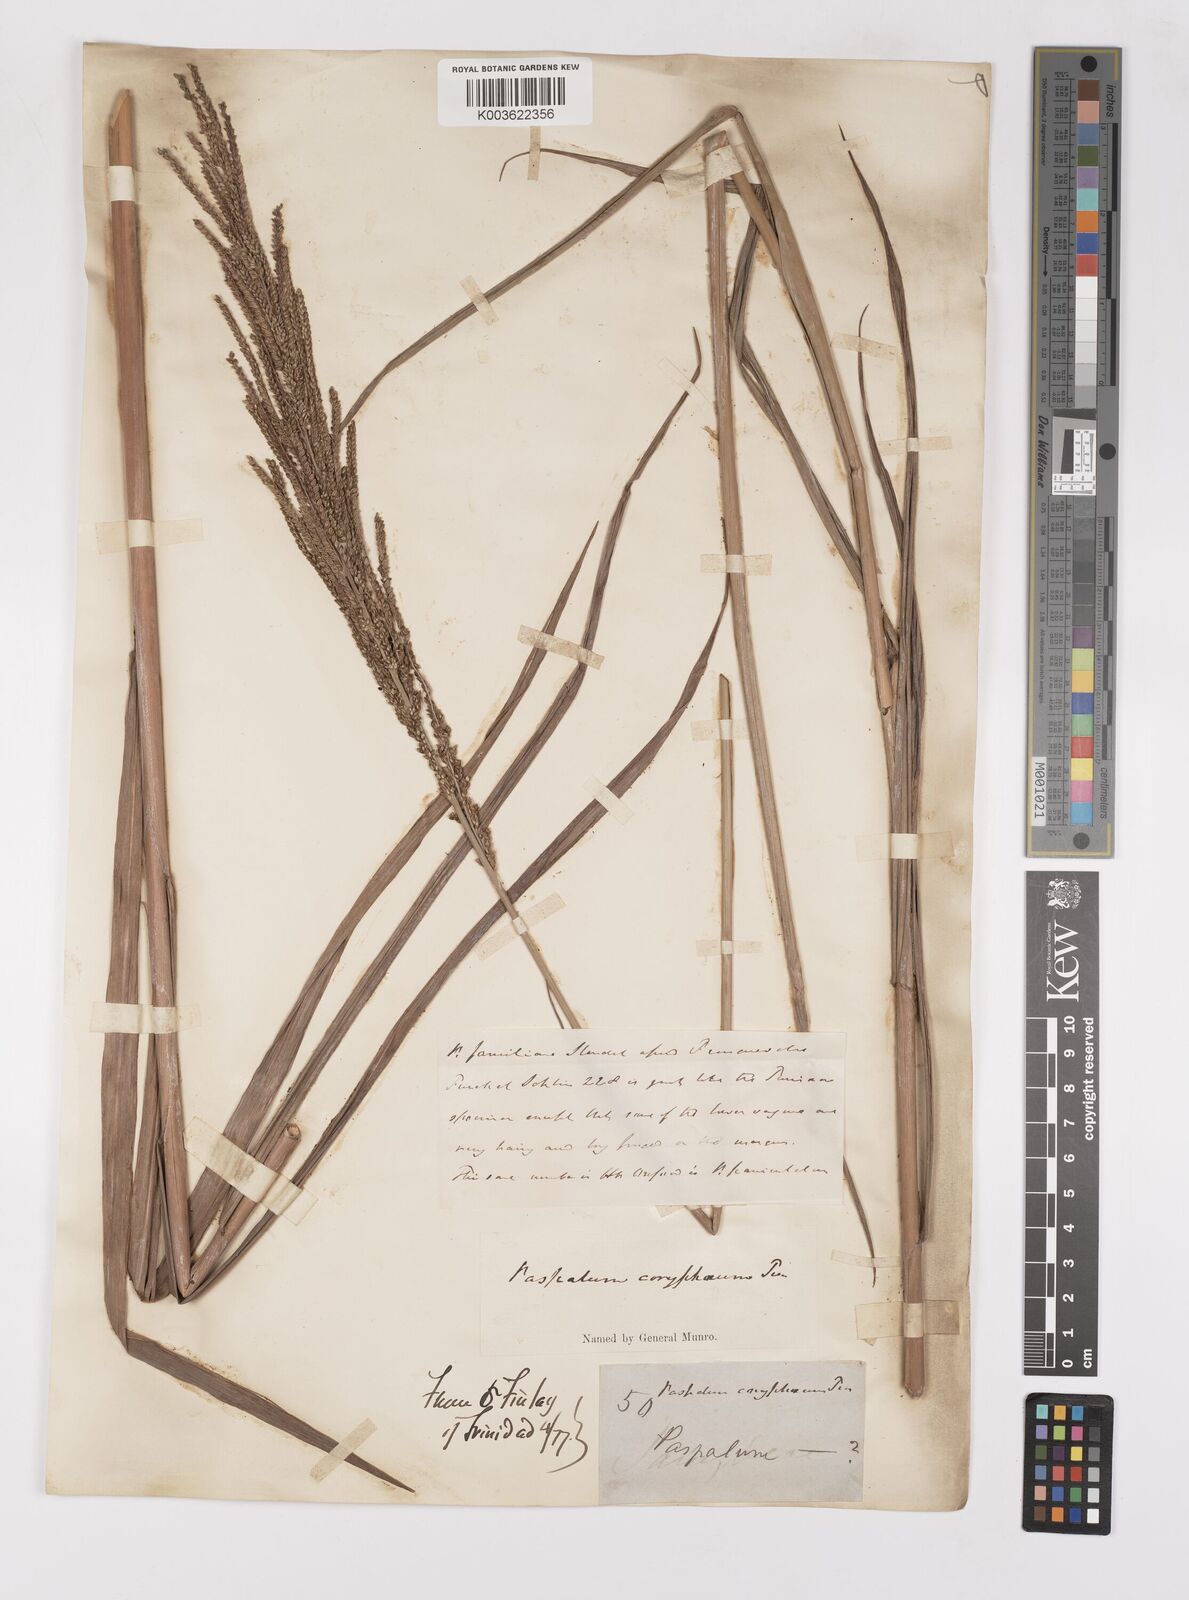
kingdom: Plantae
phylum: Tracheophyta
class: Liliopsida
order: Poales
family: Poaceae
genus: Paspalum
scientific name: Paspalum coryphaeum
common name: Emperor crowngrass
